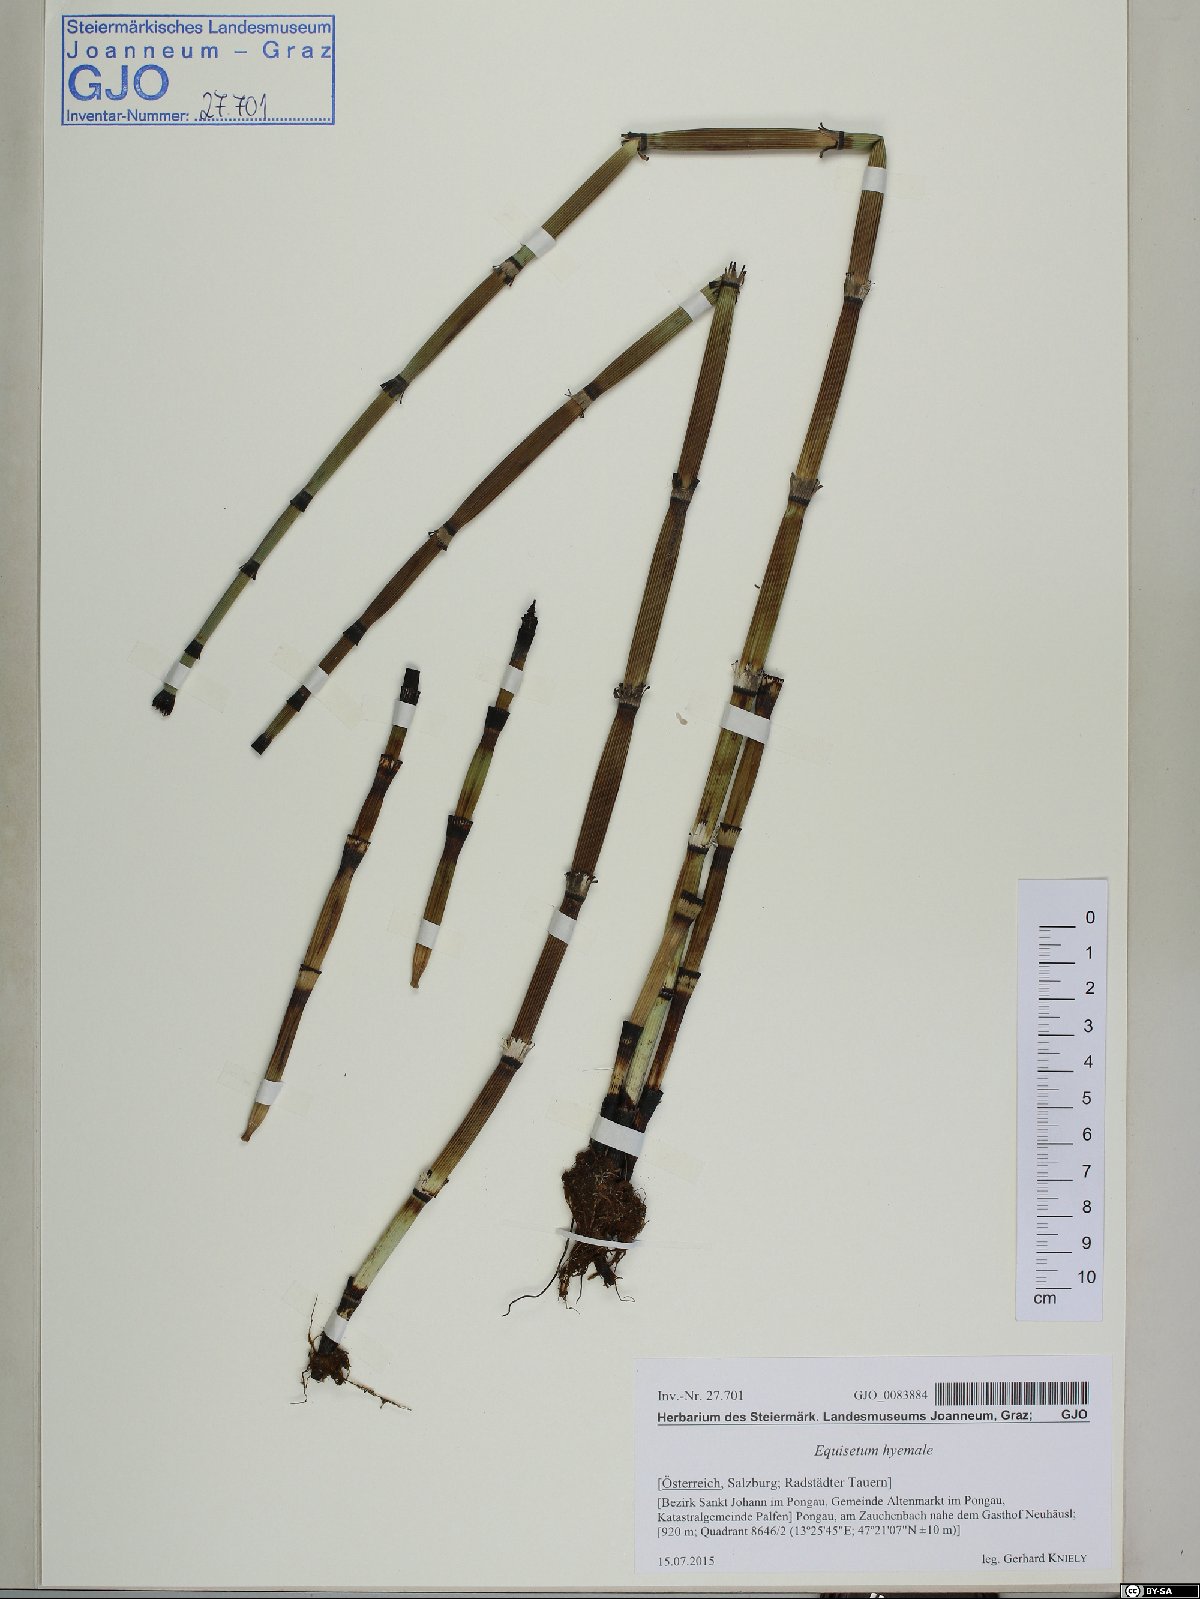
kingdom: Plantae
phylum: Tracheophyta
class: Polypodiopsida
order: Equisetales
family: Equisetaceae
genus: Equisetum
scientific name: Equisetum hyemale
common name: Rough horsetail
